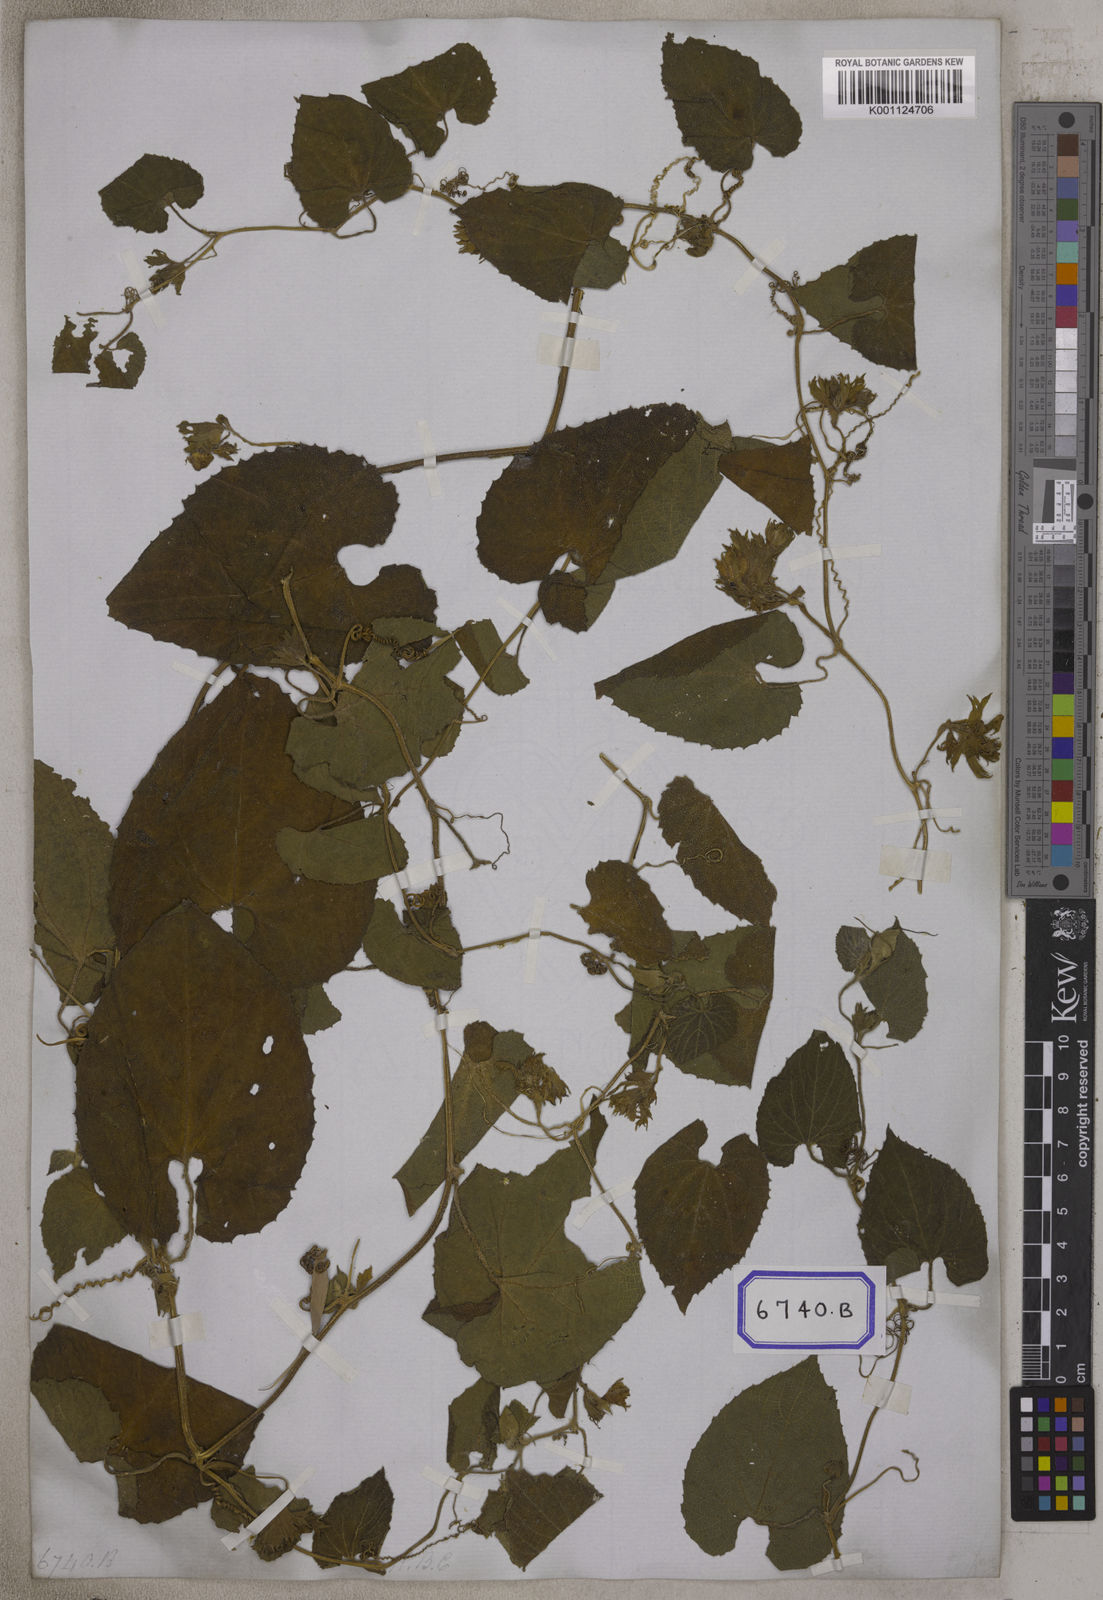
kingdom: Plantae
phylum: Tracheophyta
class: Magnoliopsida
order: Cucurbitales
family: Cucurbitaceae
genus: Thladiantha
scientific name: Thladiantha cordifolia
